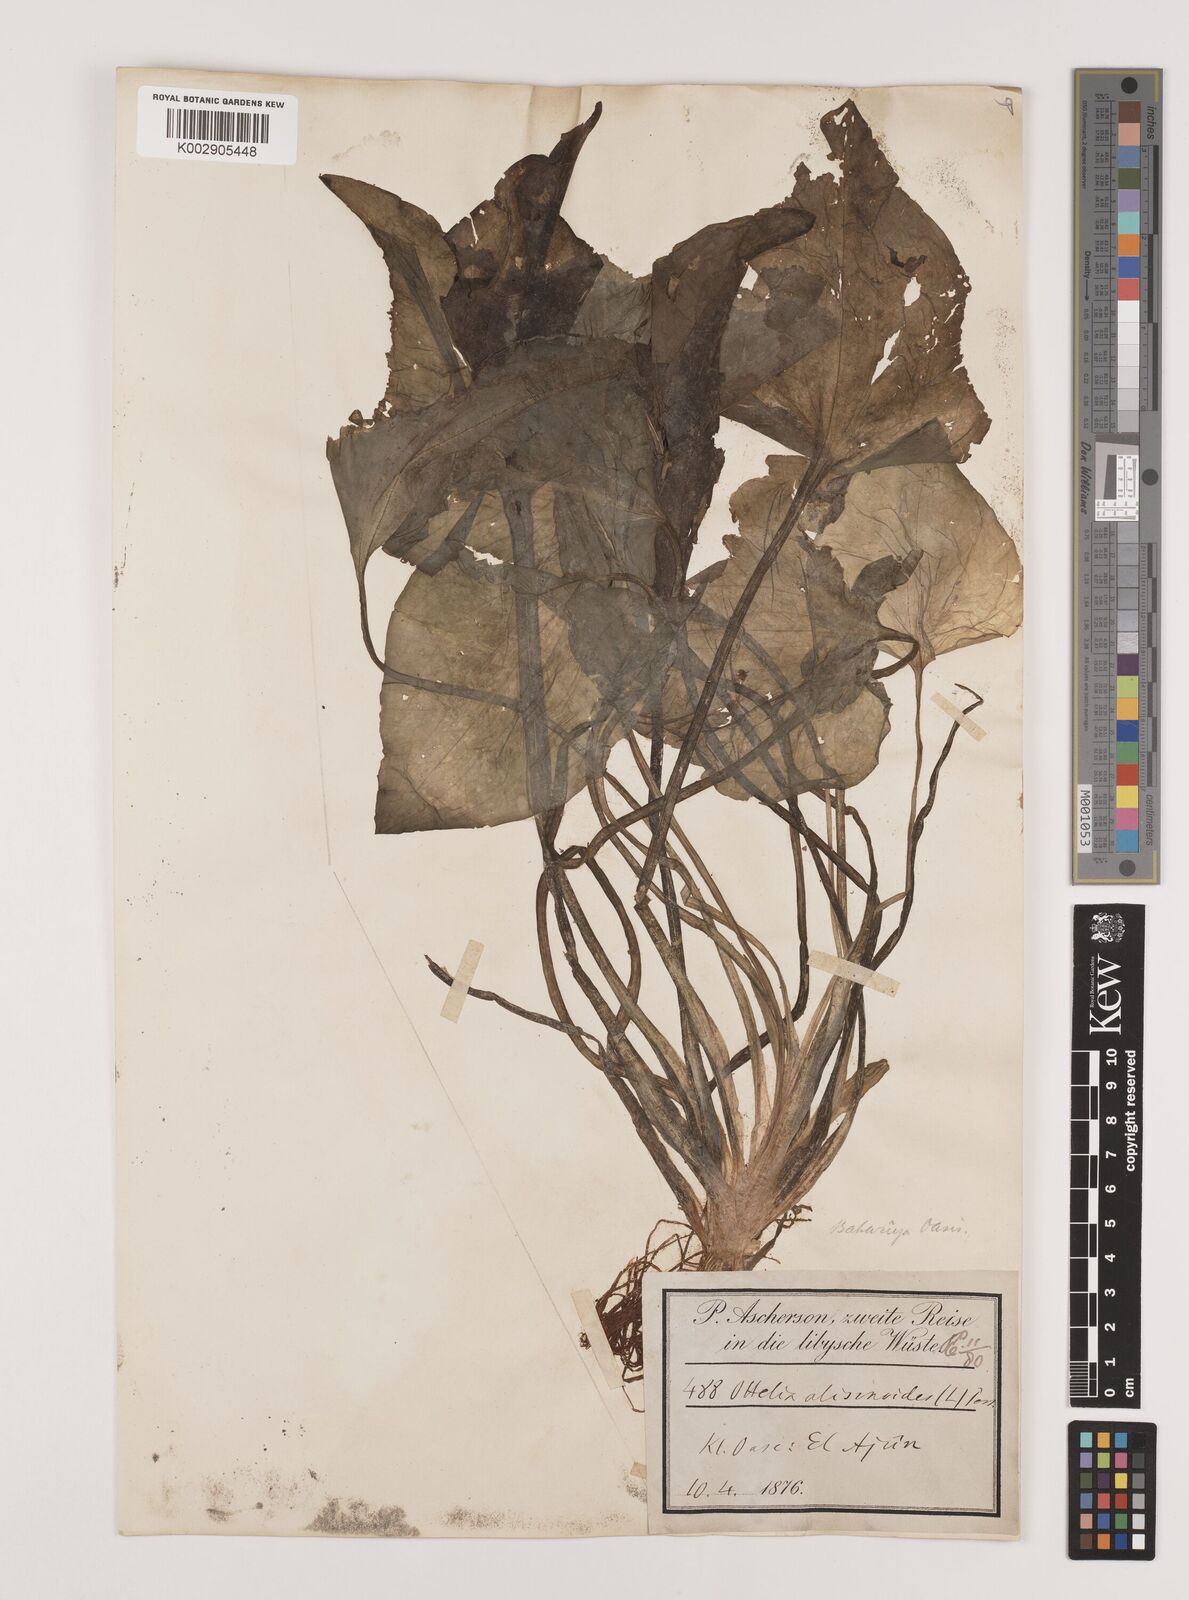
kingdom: Plantae
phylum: Tracheophyta
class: Liliopsida
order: Alismatales
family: Hydrocharitaceae
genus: Ottelia
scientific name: Ottelia alismoides
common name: Duck-lettuce
